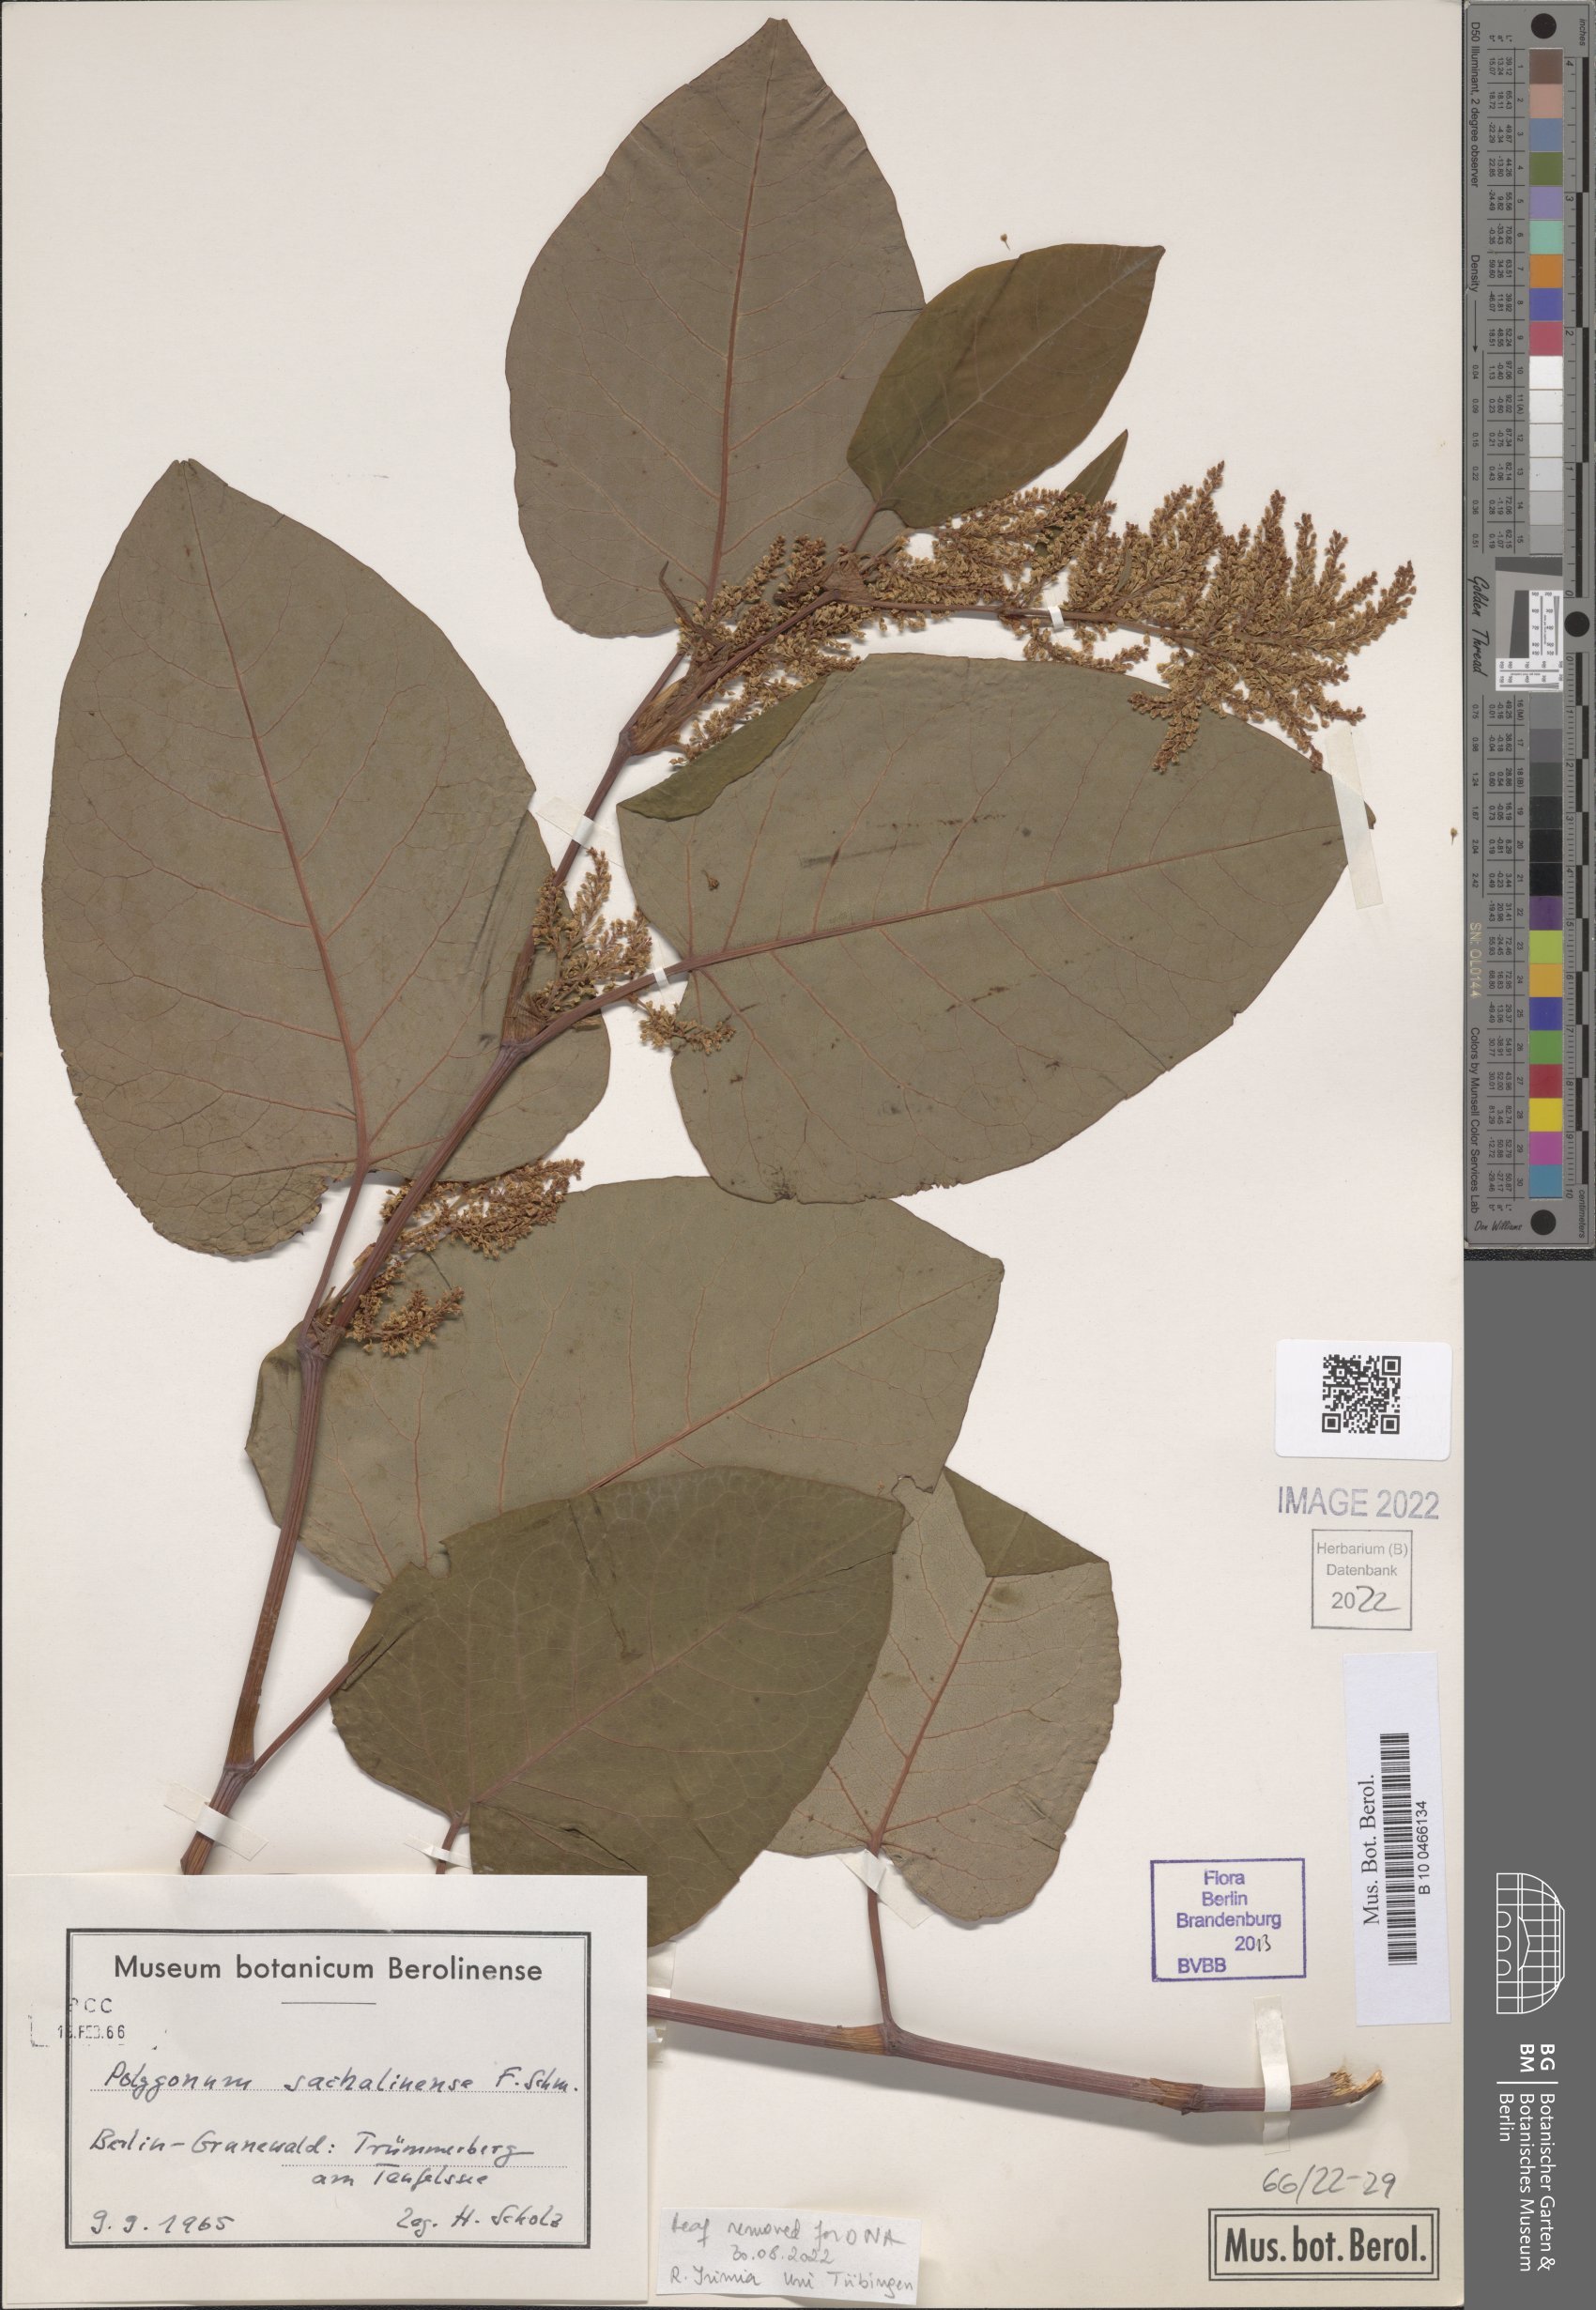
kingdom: Plantae
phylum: Tracheophyta
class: Magnoliopsida
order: Caryophyllales
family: Polygonaceae
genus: Reynoutria
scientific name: Reynoutria sachalinensis
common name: Giant knotweed
